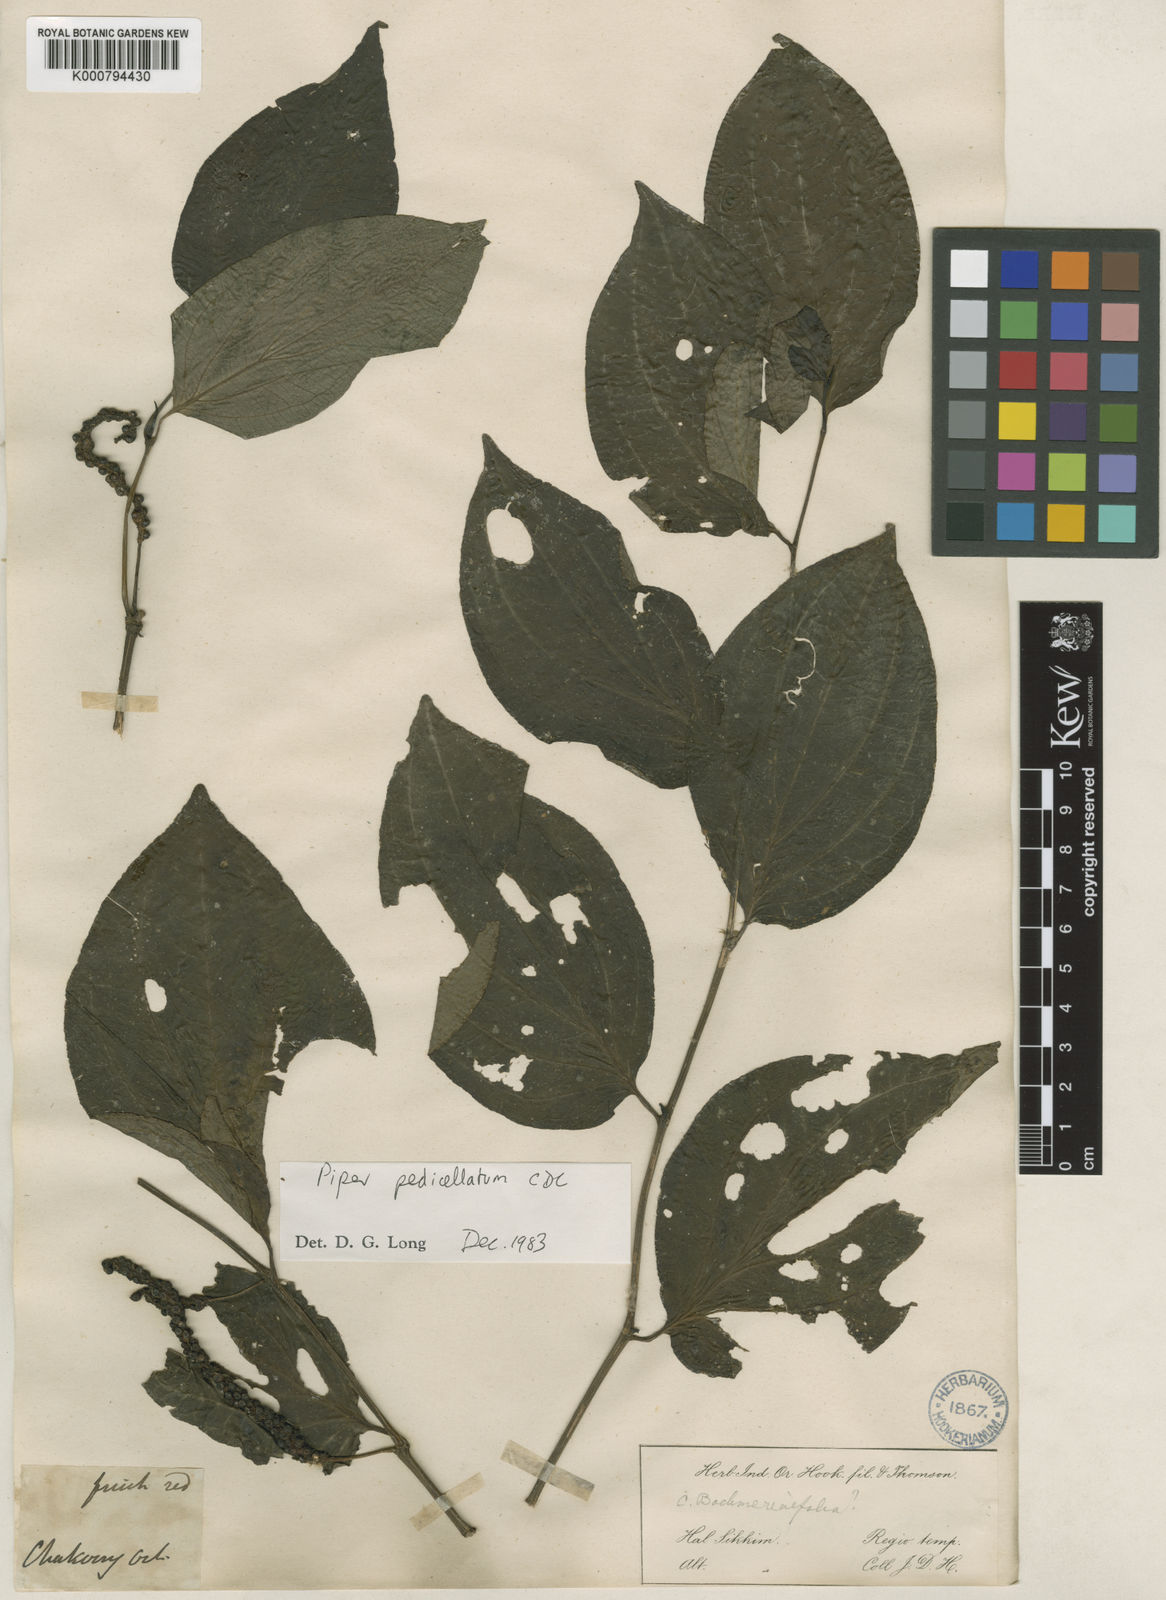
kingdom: Plantae
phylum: Tracheophyta
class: Magnoliopsida
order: Piperales
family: Piperaceae
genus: Piper
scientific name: Piper pedicellatum
